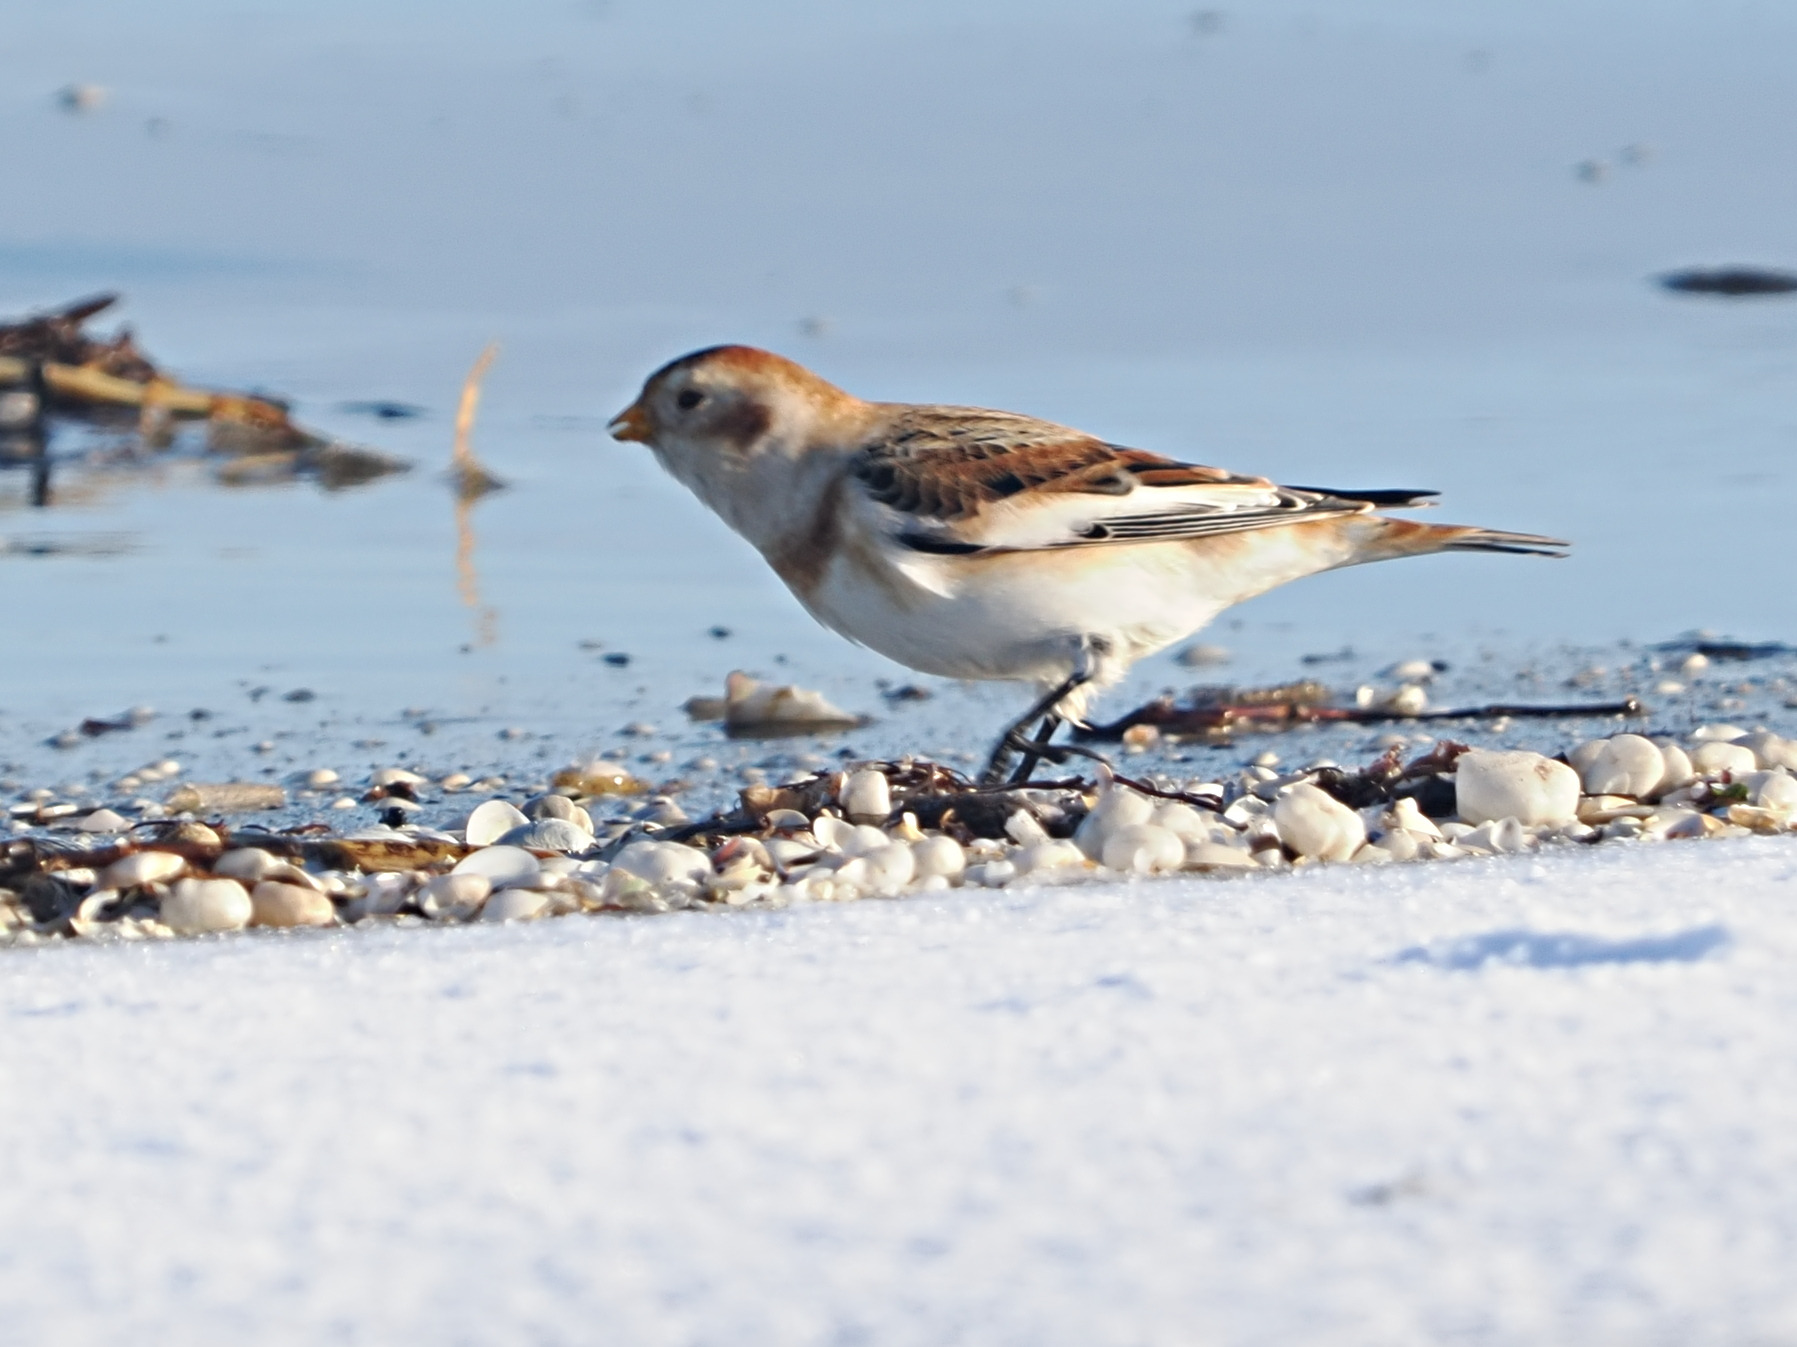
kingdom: Animalia
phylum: Chordata
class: Aves
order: Passeriformes
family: Calcariidae
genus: Plectrophenax
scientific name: Plectrophenax nivalis
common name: Snespurv
